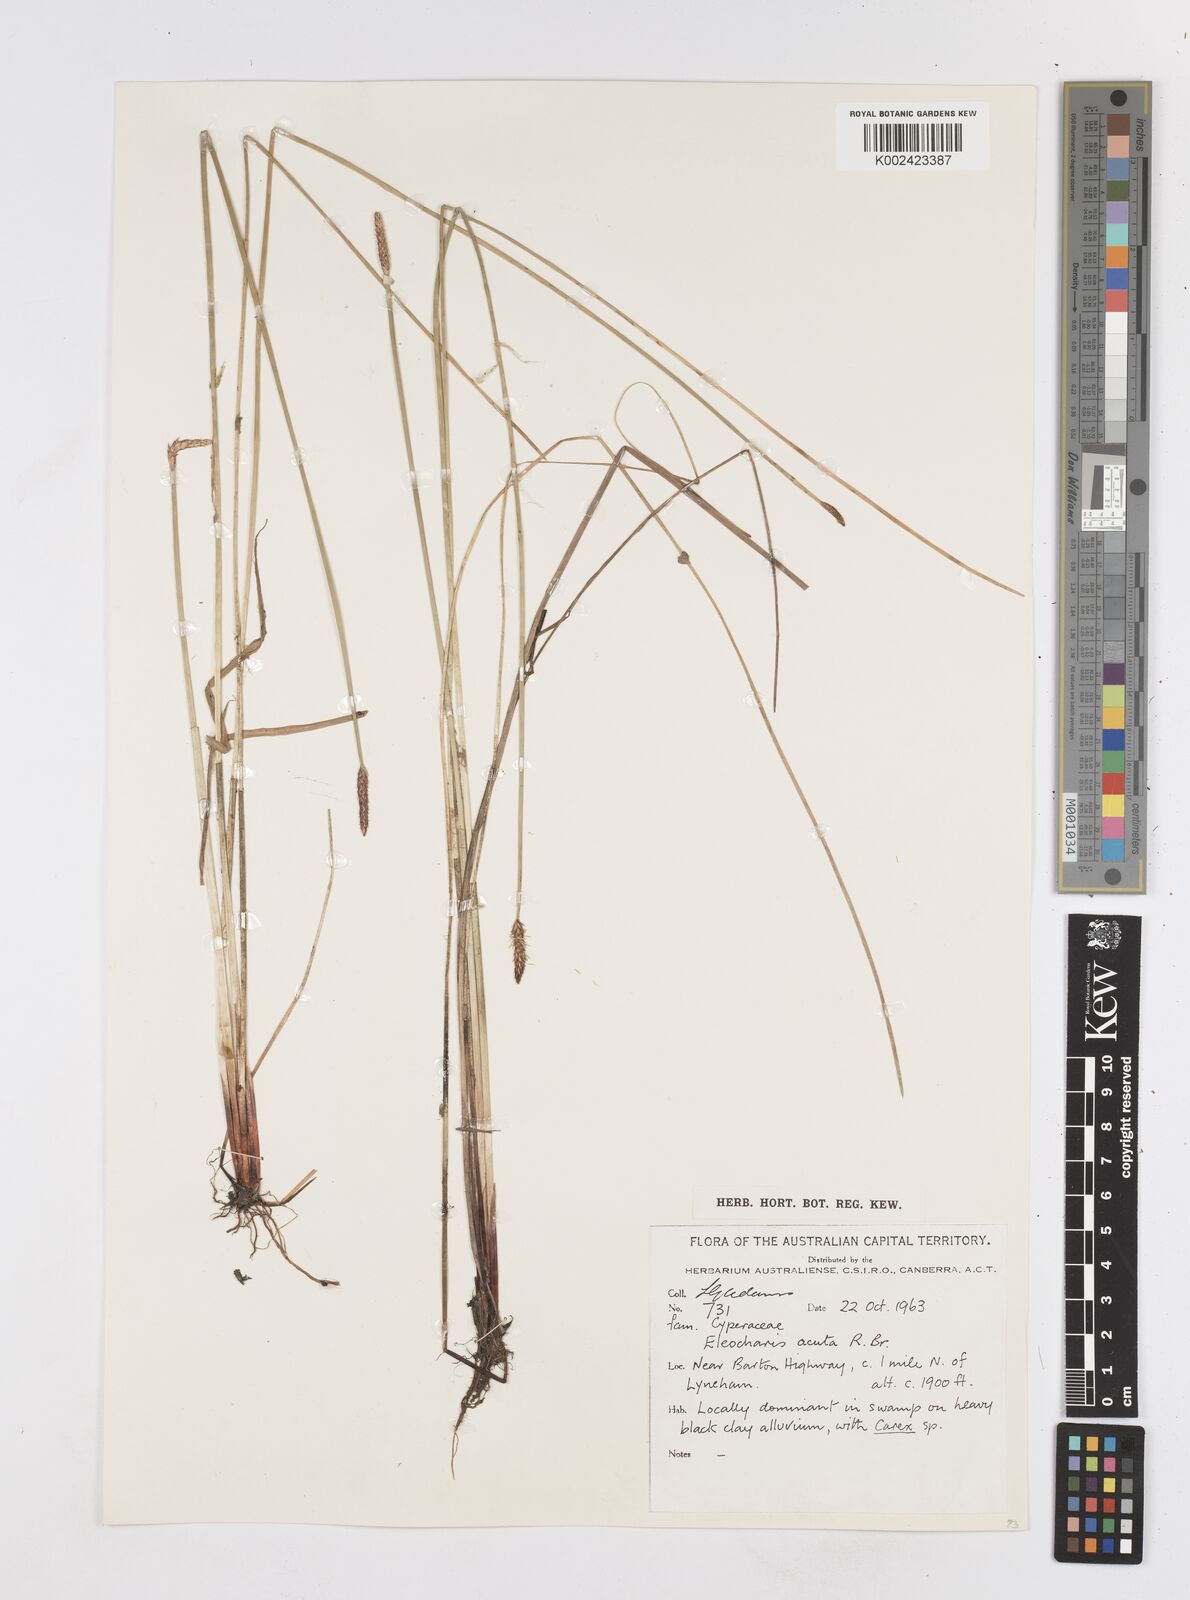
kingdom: Plantae
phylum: Tracheophyta
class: Liliopsida
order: Poales
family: Cyperaceae
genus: Eleocharis
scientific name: Eleocharis acuta
